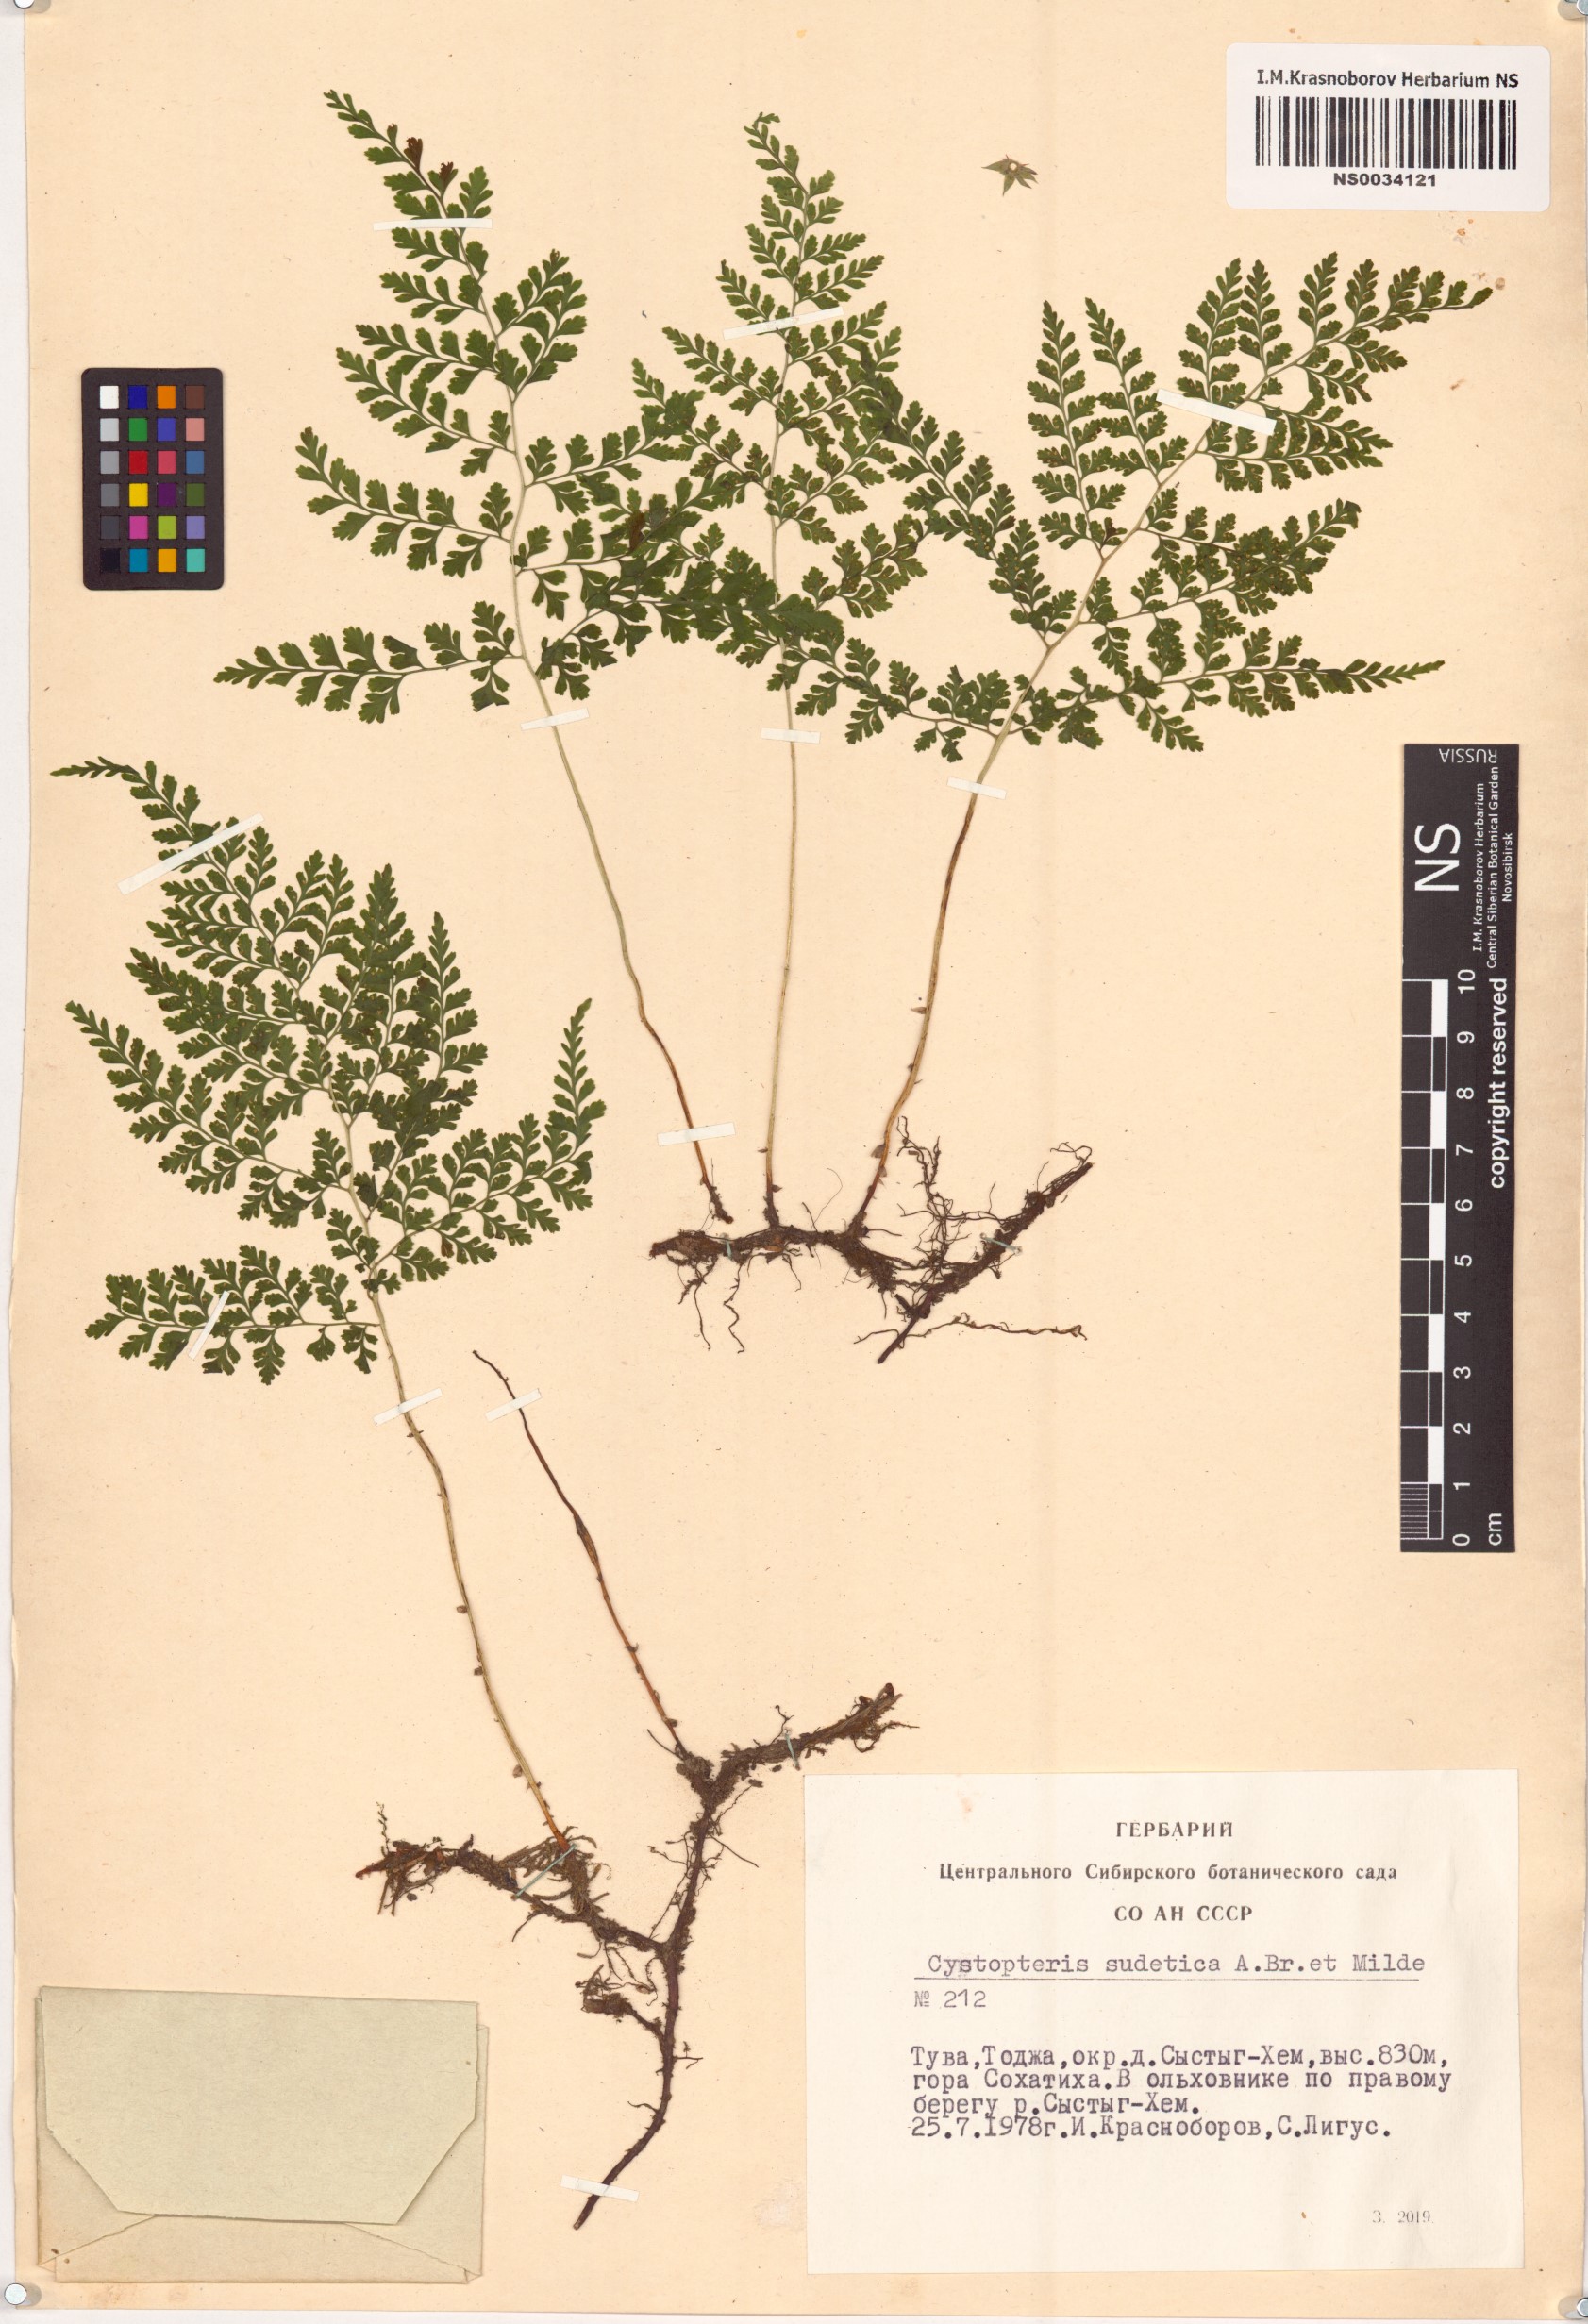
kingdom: Plantae
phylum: Tracheophyta
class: Polypodiopsida
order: Polypodiales
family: Cystopteridaceae
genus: Cystopteris
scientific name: Cystopteris sudetica
